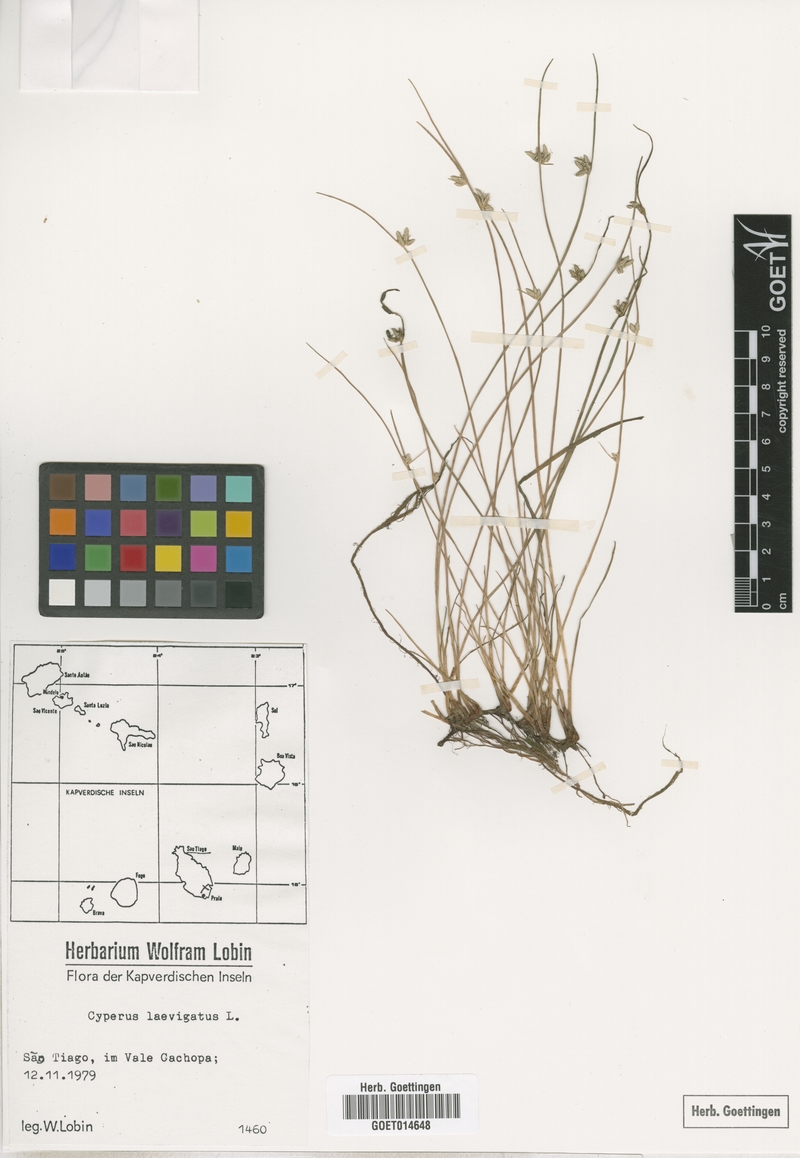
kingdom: Plantae
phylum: Tracheophyta
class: Liliopsida
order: Poales
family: Cyperaceae
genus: Cyperus
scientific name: Cyperus laevigatus
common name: Smooth flat sedge
